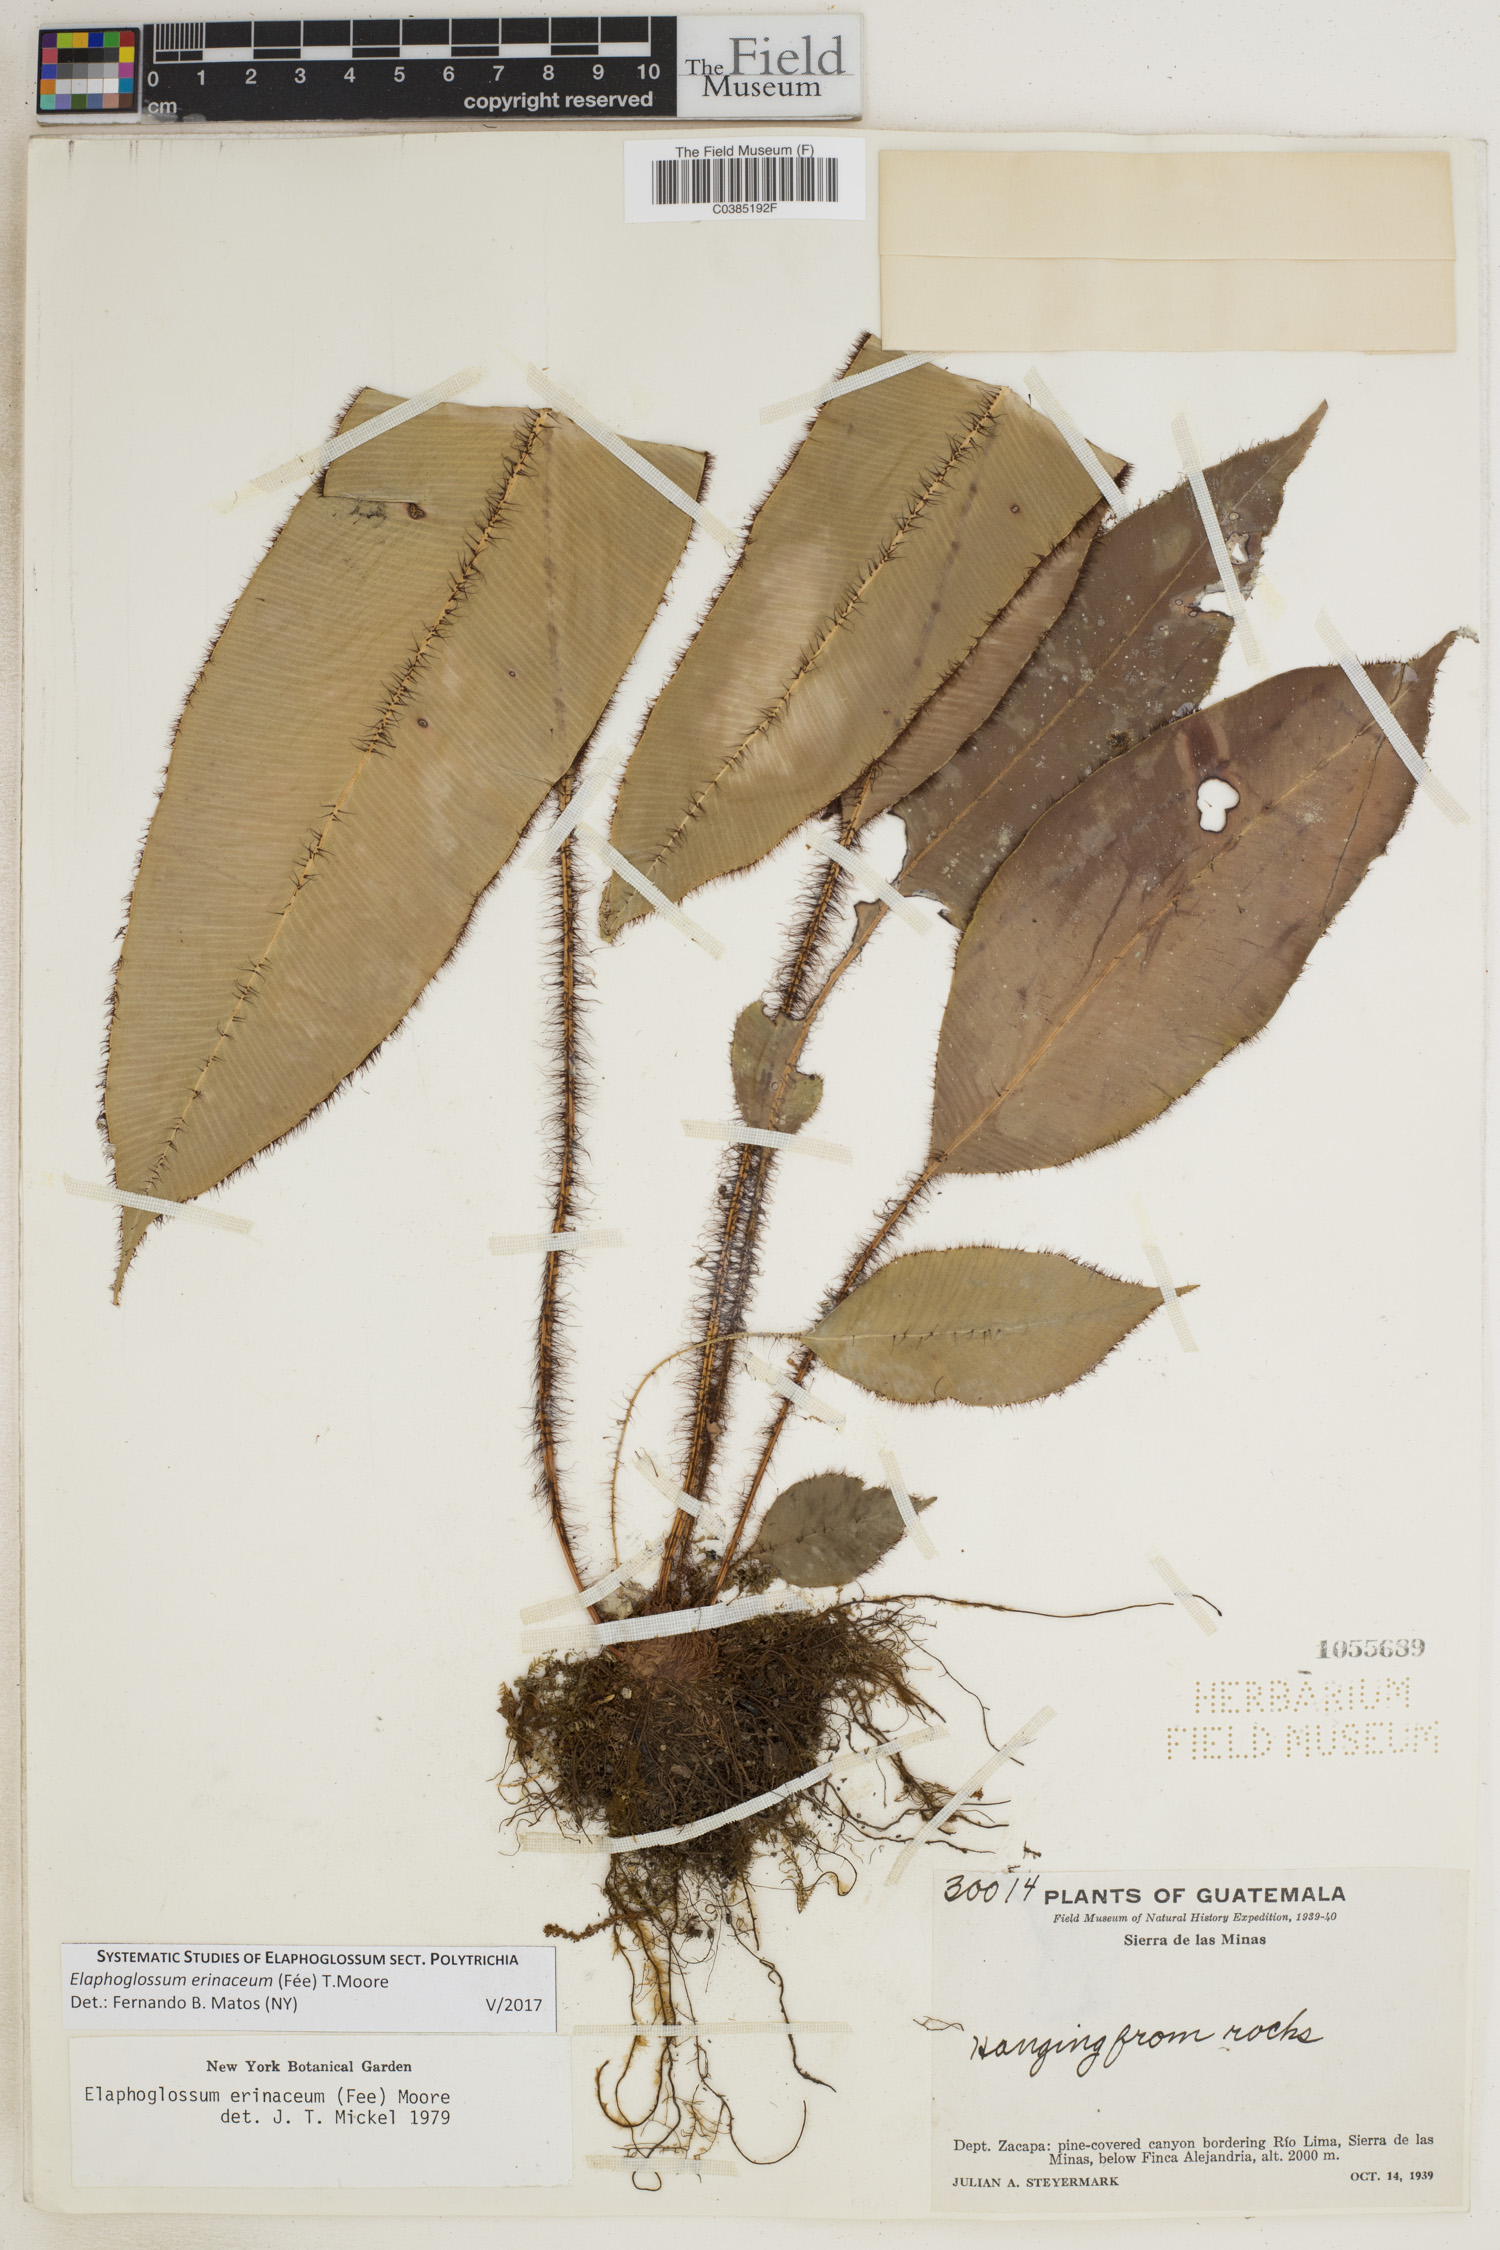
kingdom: Plantae
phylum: Tracheophyta
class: Polypodiopsida
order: Polypodiales
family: Dryopteridaceae
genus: Elaphoglossum
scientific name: Elaphoglossum erinaceum
